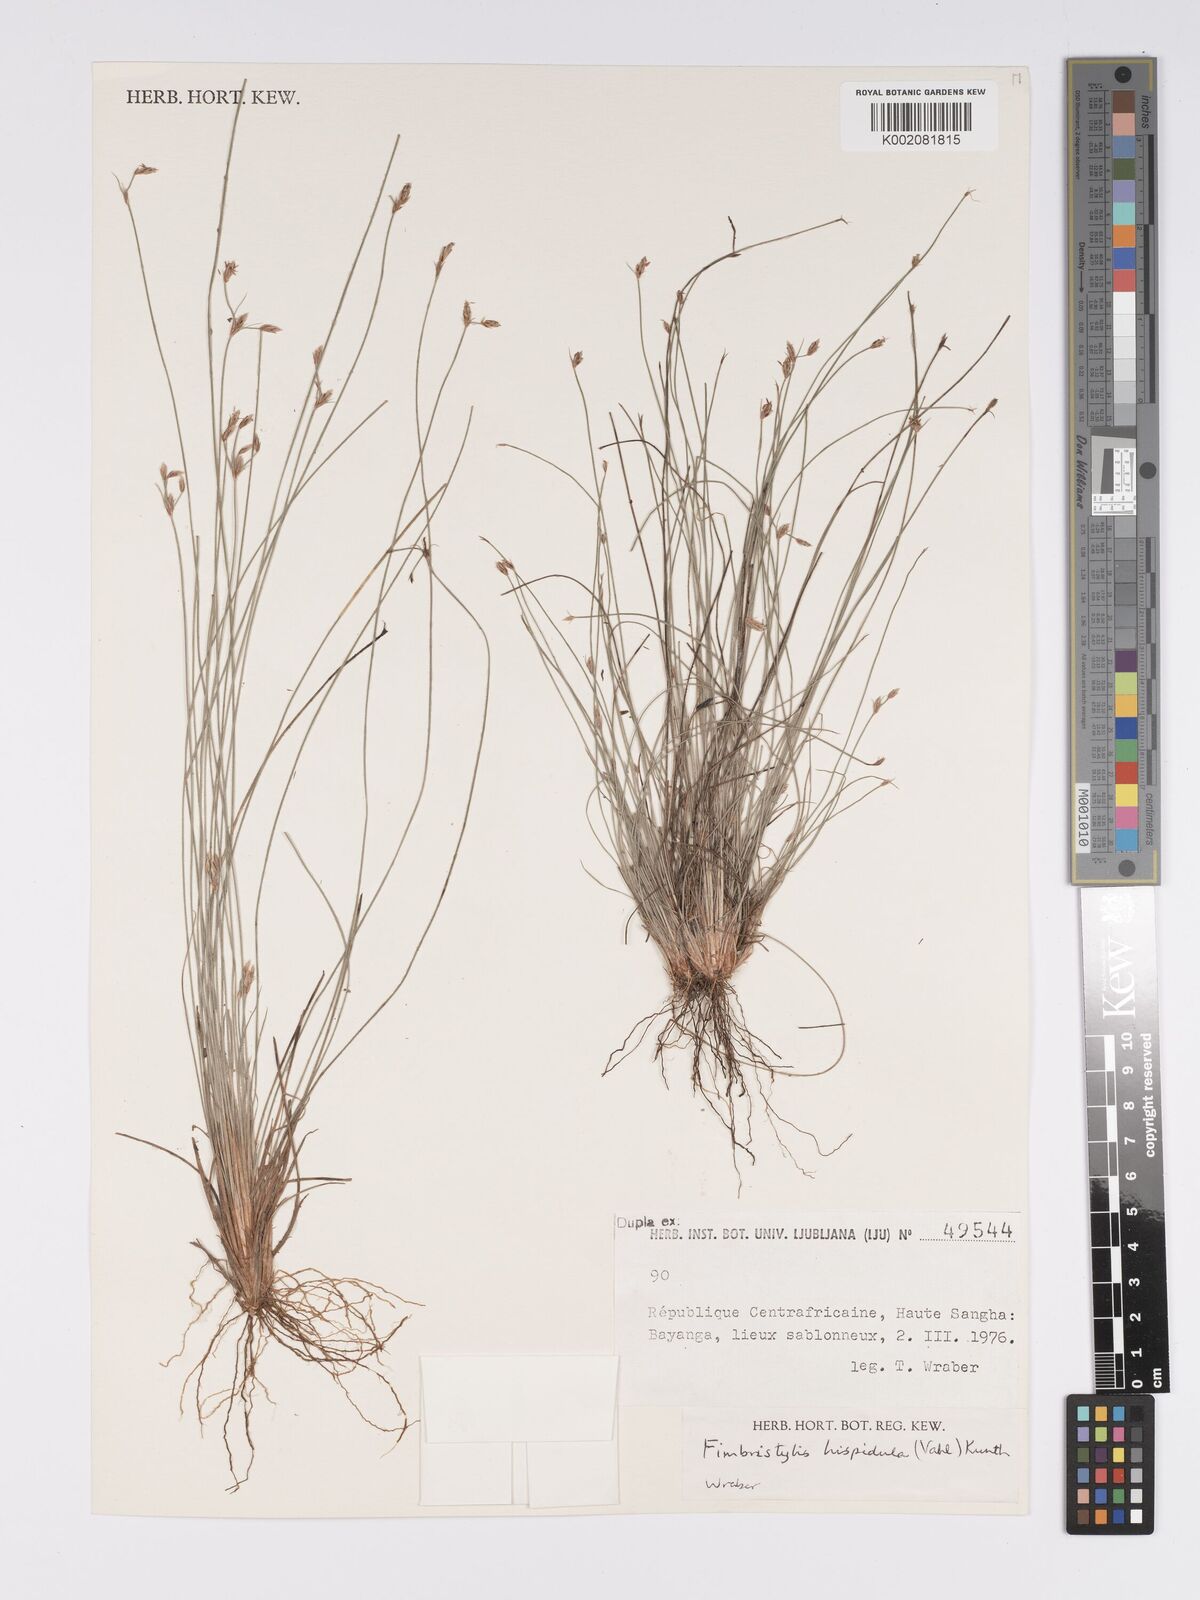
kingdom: Plantae
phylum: Tracheophyta
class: Liliopsida
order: Poales
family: Cyperaceae
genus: Bulbostylis
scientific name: Bulbostylis hispidula
